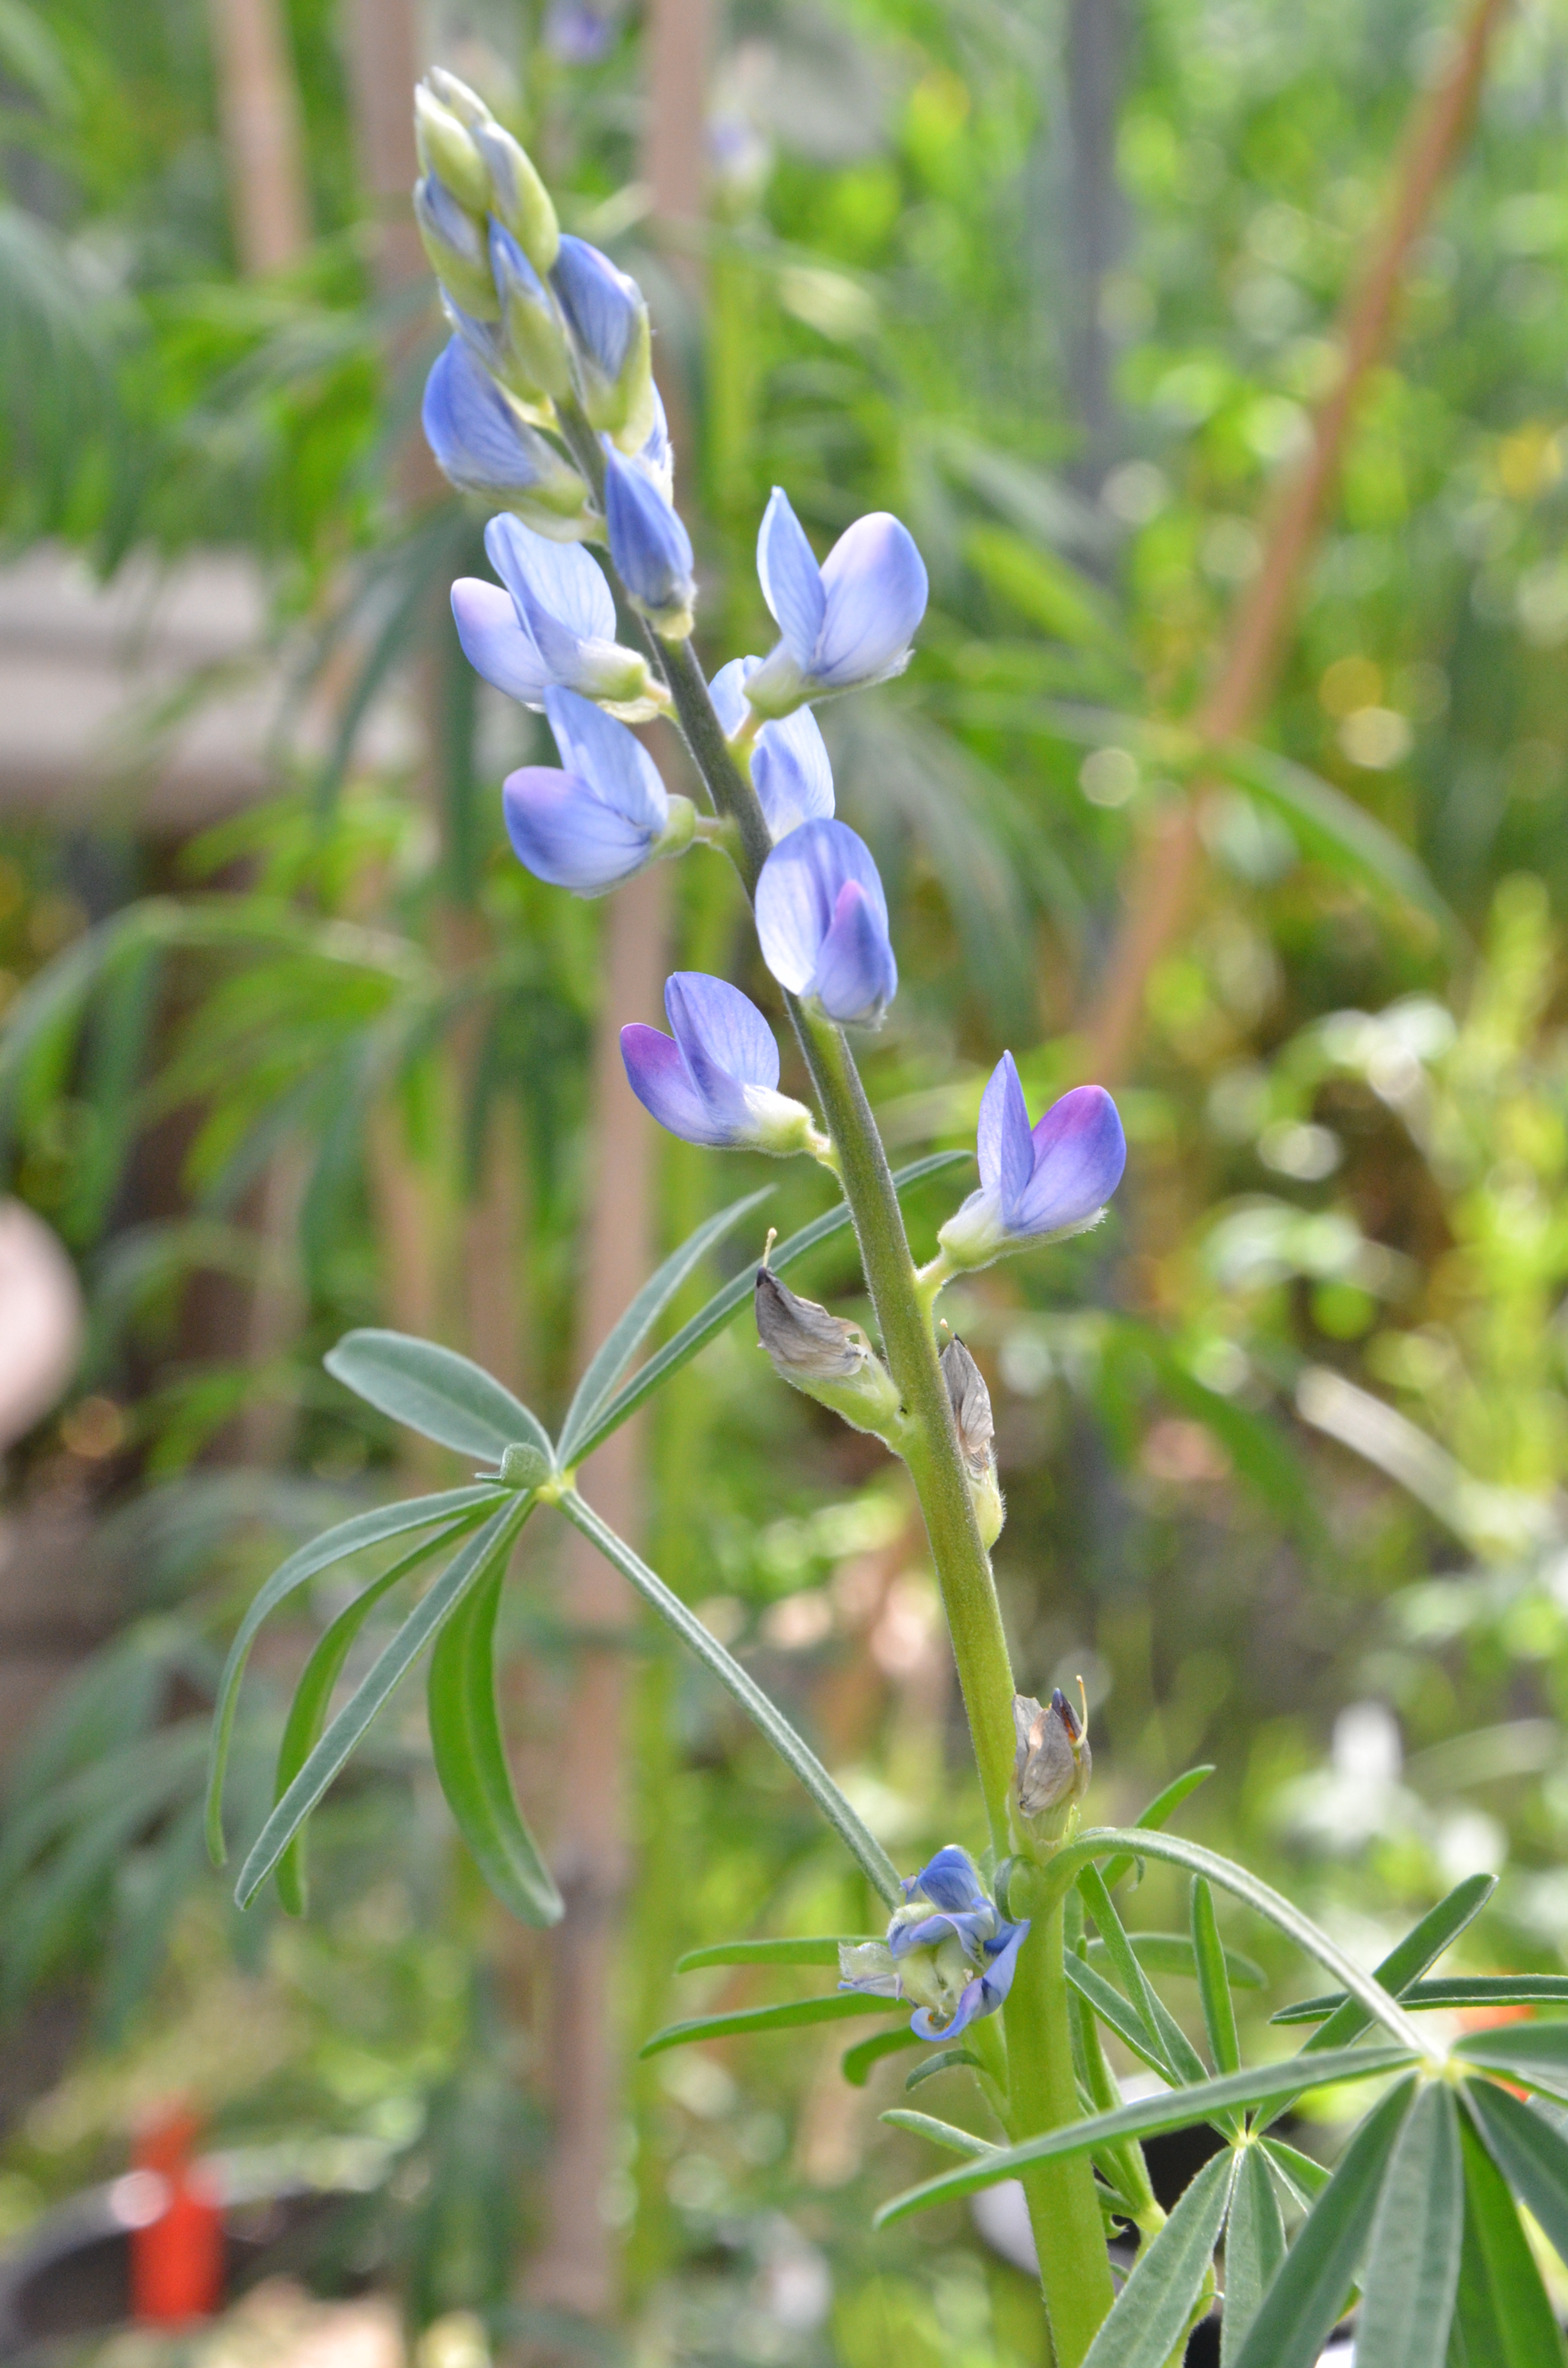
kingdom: Plantae
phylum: Tracheophyta
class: Magnoliopsida
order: Fabales
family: Fabaceae
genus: Lupinus
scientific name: Lupinus angustifolius
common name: Narrow-leaved lupin
